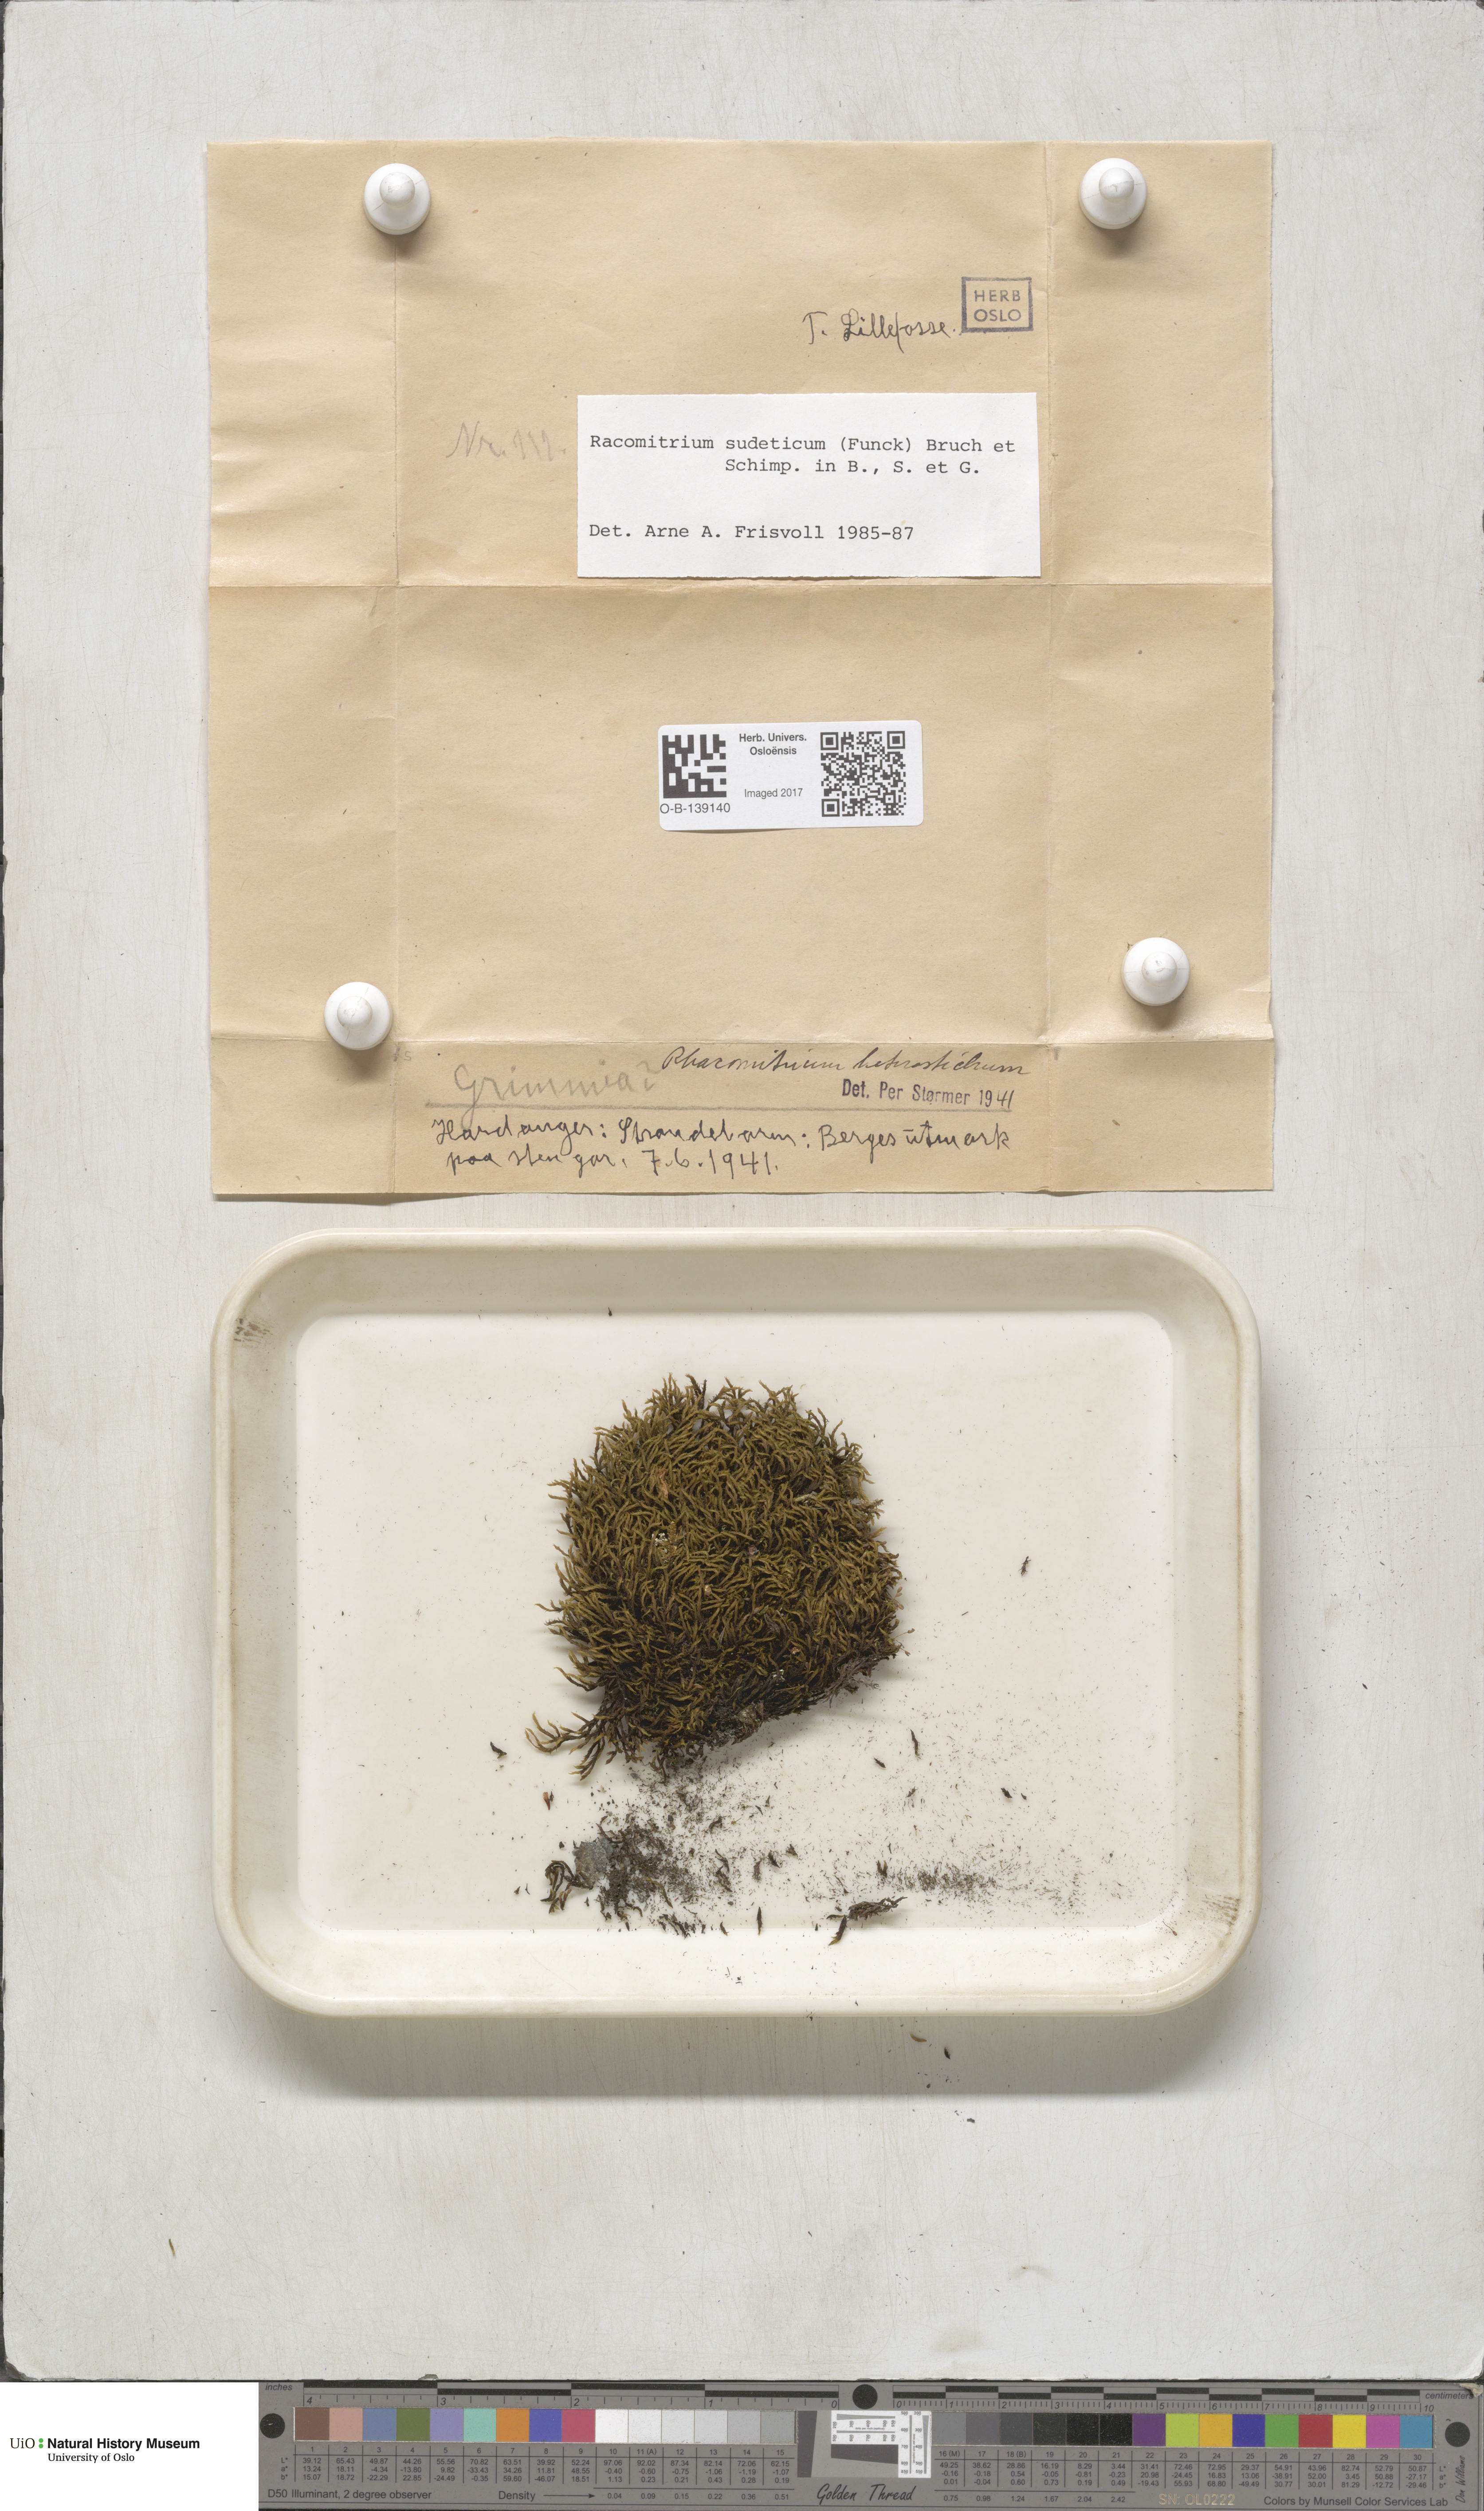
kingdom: Plantae
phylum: Bryophyta
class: Bryopsida
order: Grimmiales
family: Grimmiaceae
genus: Bucklandiella
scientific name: Bucklandiella sudetica
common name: Slender fringe-moss
